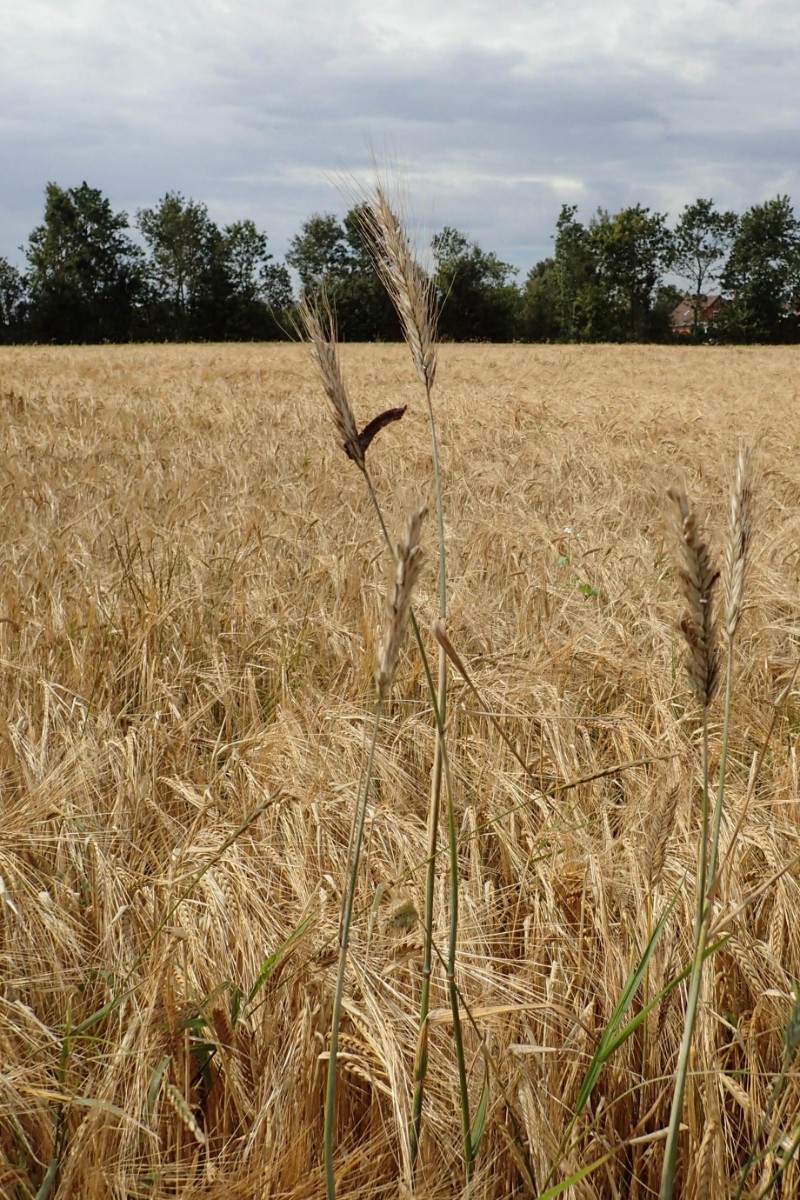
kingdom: Fungi
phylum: Ascomycota
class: Sordariomycetes
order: Hypocreales
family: Clavicipitaceae
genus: Claviceps
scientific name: Claviceps purpurea
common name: almindelig meldrøjer
